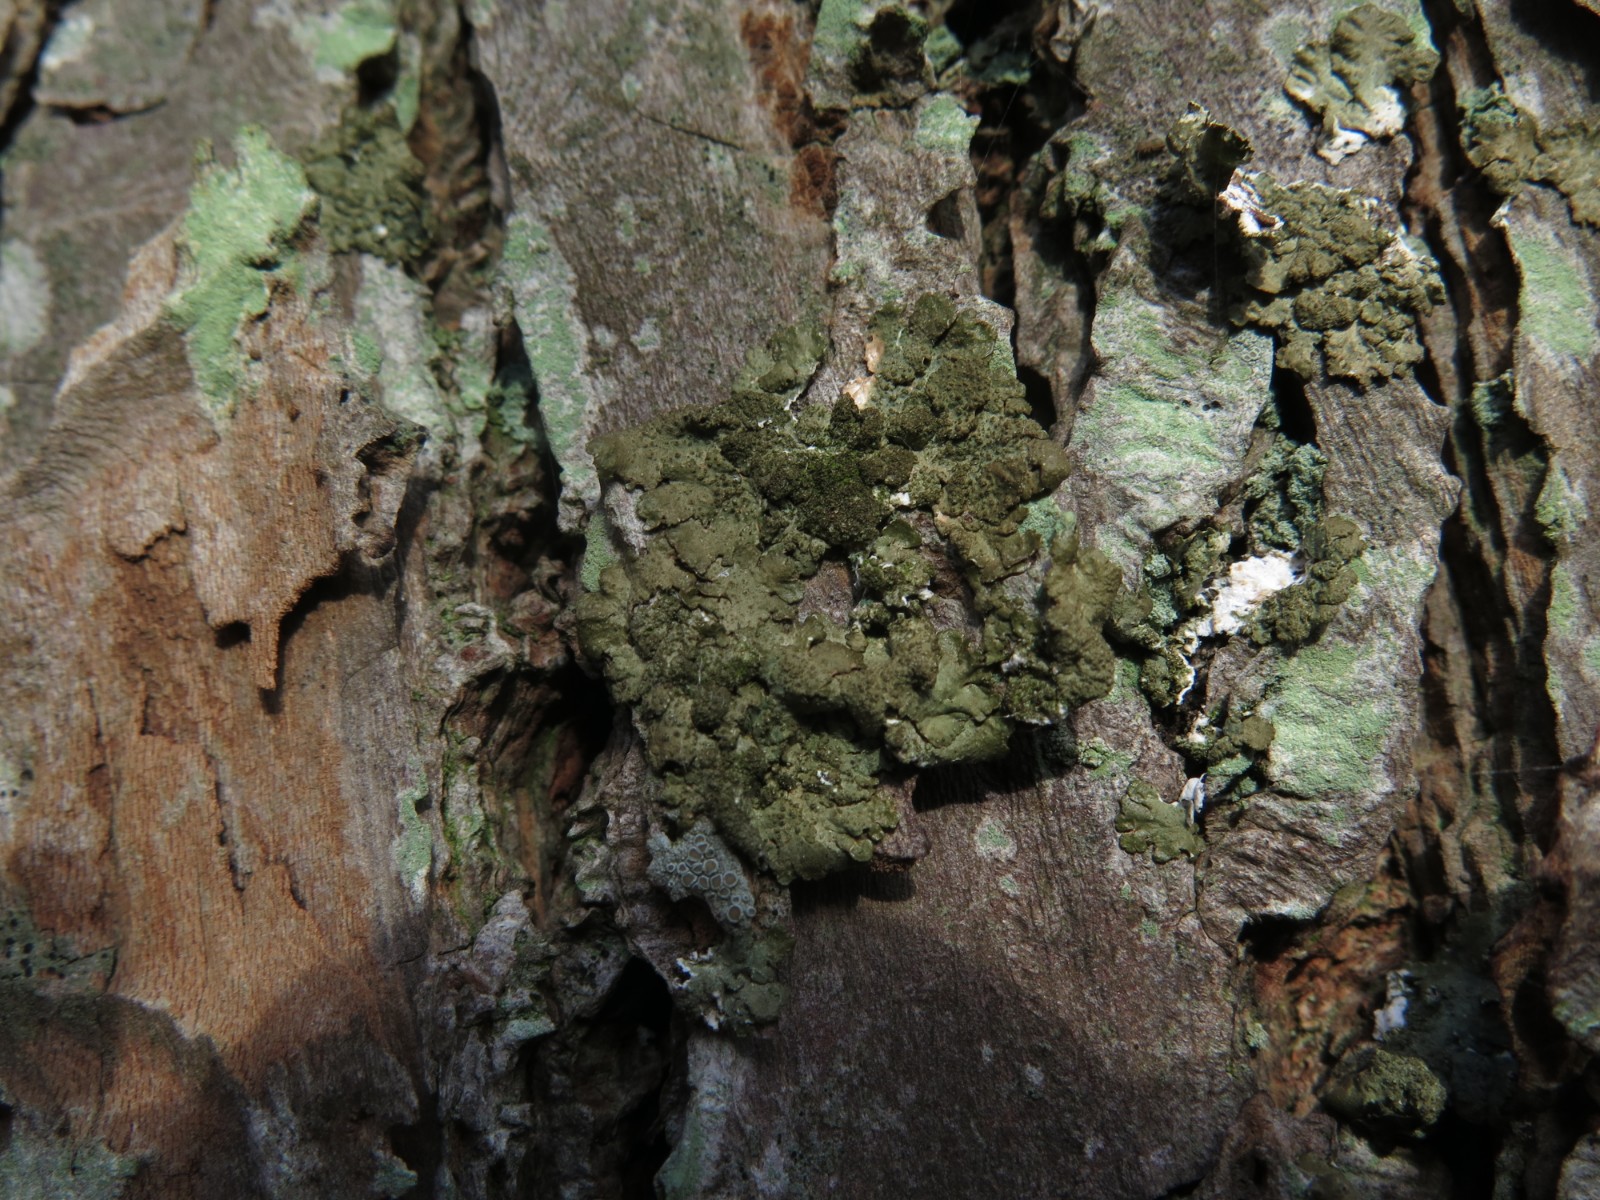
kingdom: Fungi
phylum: Ascomycota
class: Lecanoromycetes
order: Lecanorales
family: Parmeliaceae
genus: Melanelixia
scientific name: Melanelixia subaurifera
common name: guldpudret skållav
